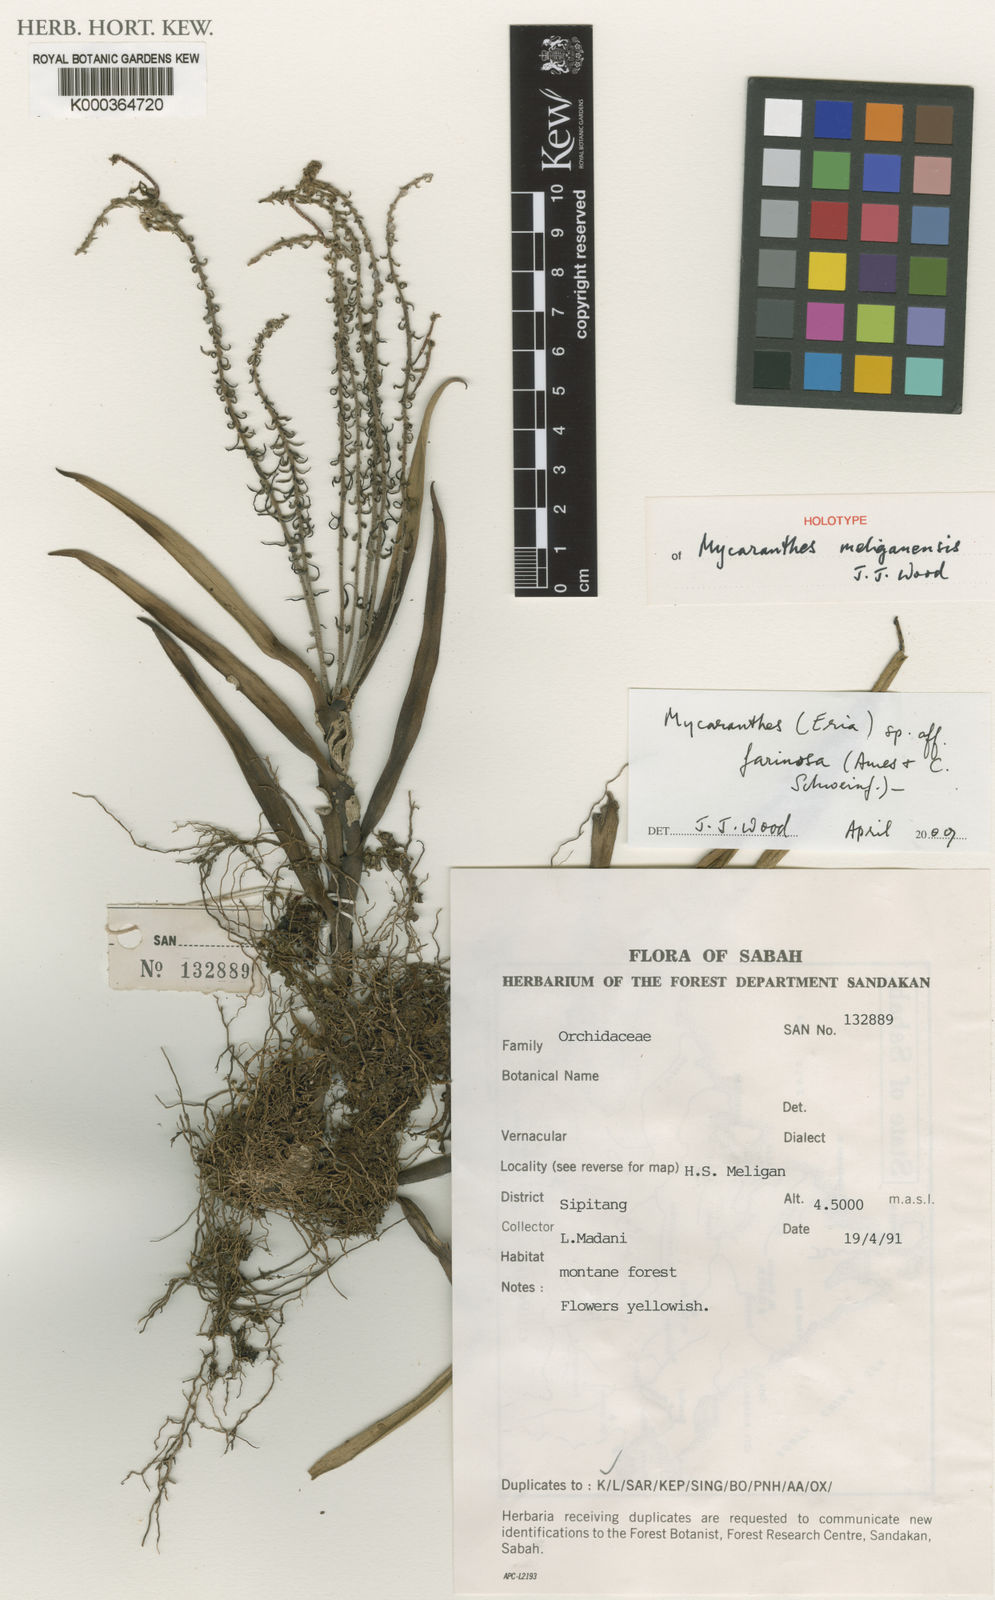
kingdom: Plantae
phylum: Tracheophyta
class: Liliopsida
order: Asparagales
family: Orchidaceae
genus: Mycaranthes
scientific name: Mycaranthes meliganensis
